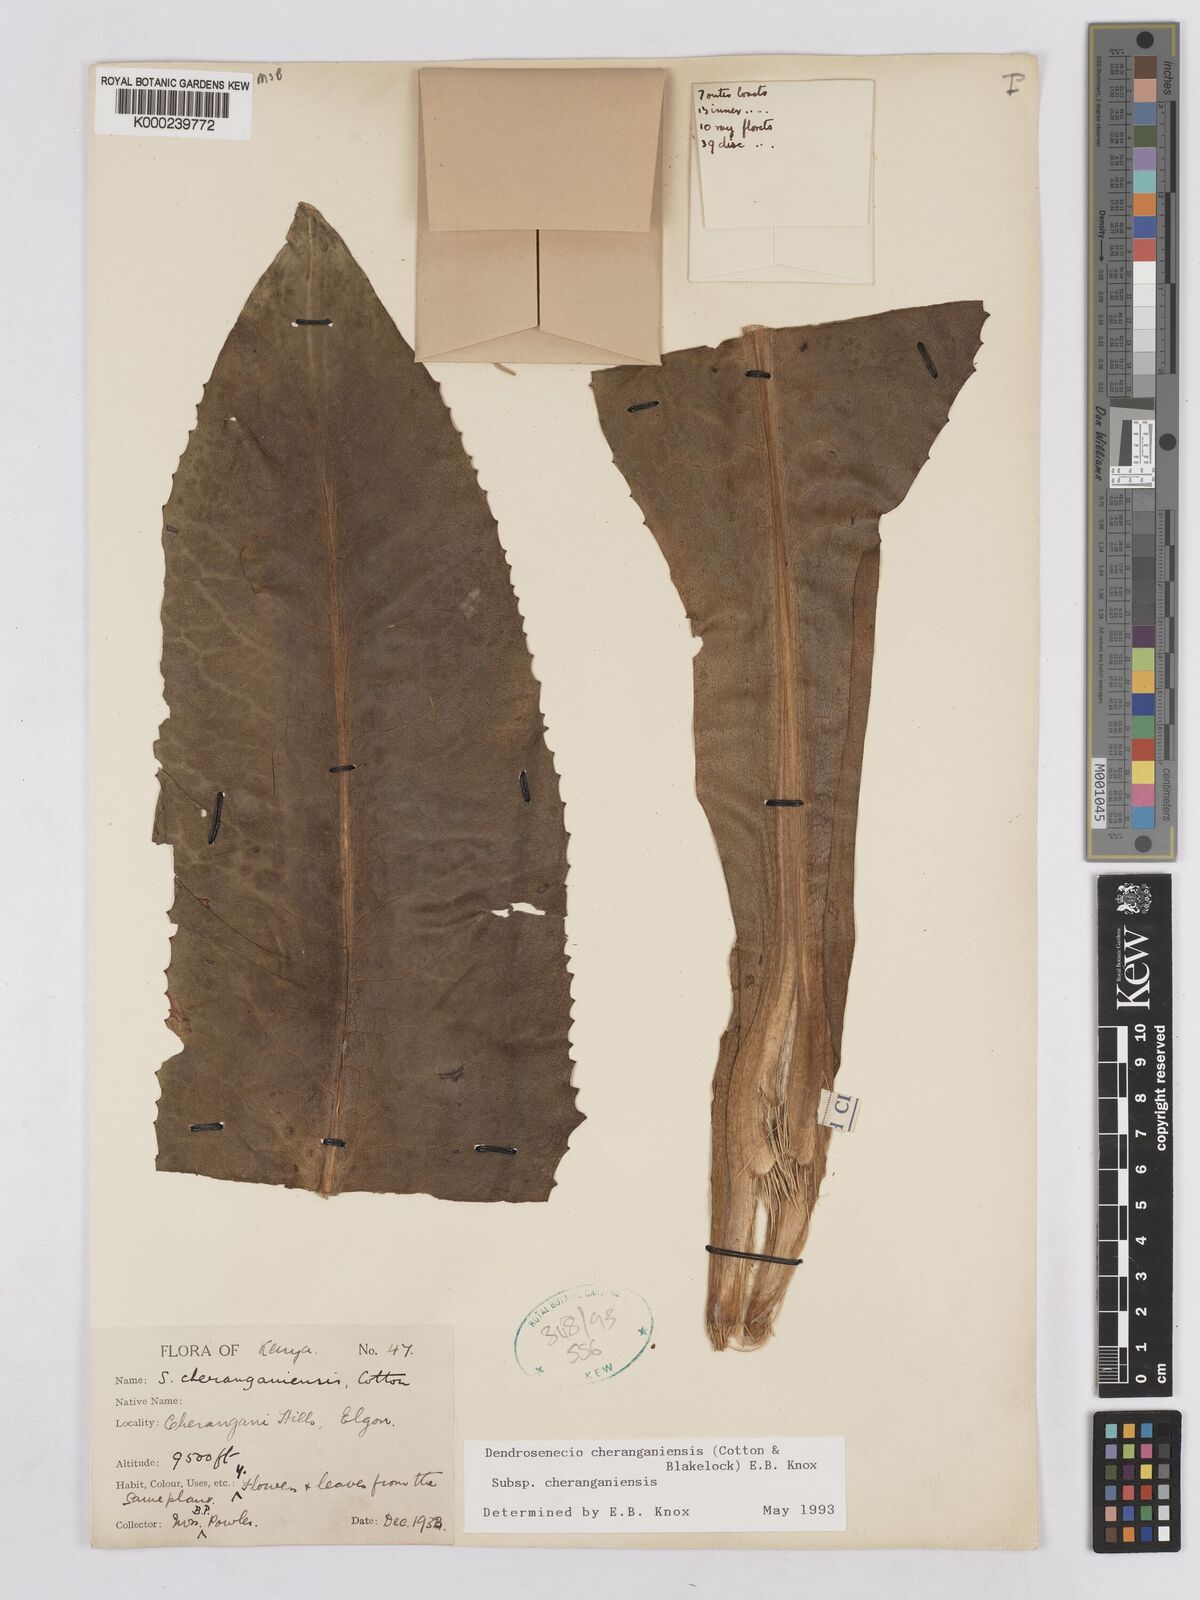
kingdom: Plantae
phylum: Tracheophyta
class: Magnoliopsida
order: Asterales
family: Asteraceae
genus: Dendrosenecio
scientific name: Dendrosenecio cheranganiensis
